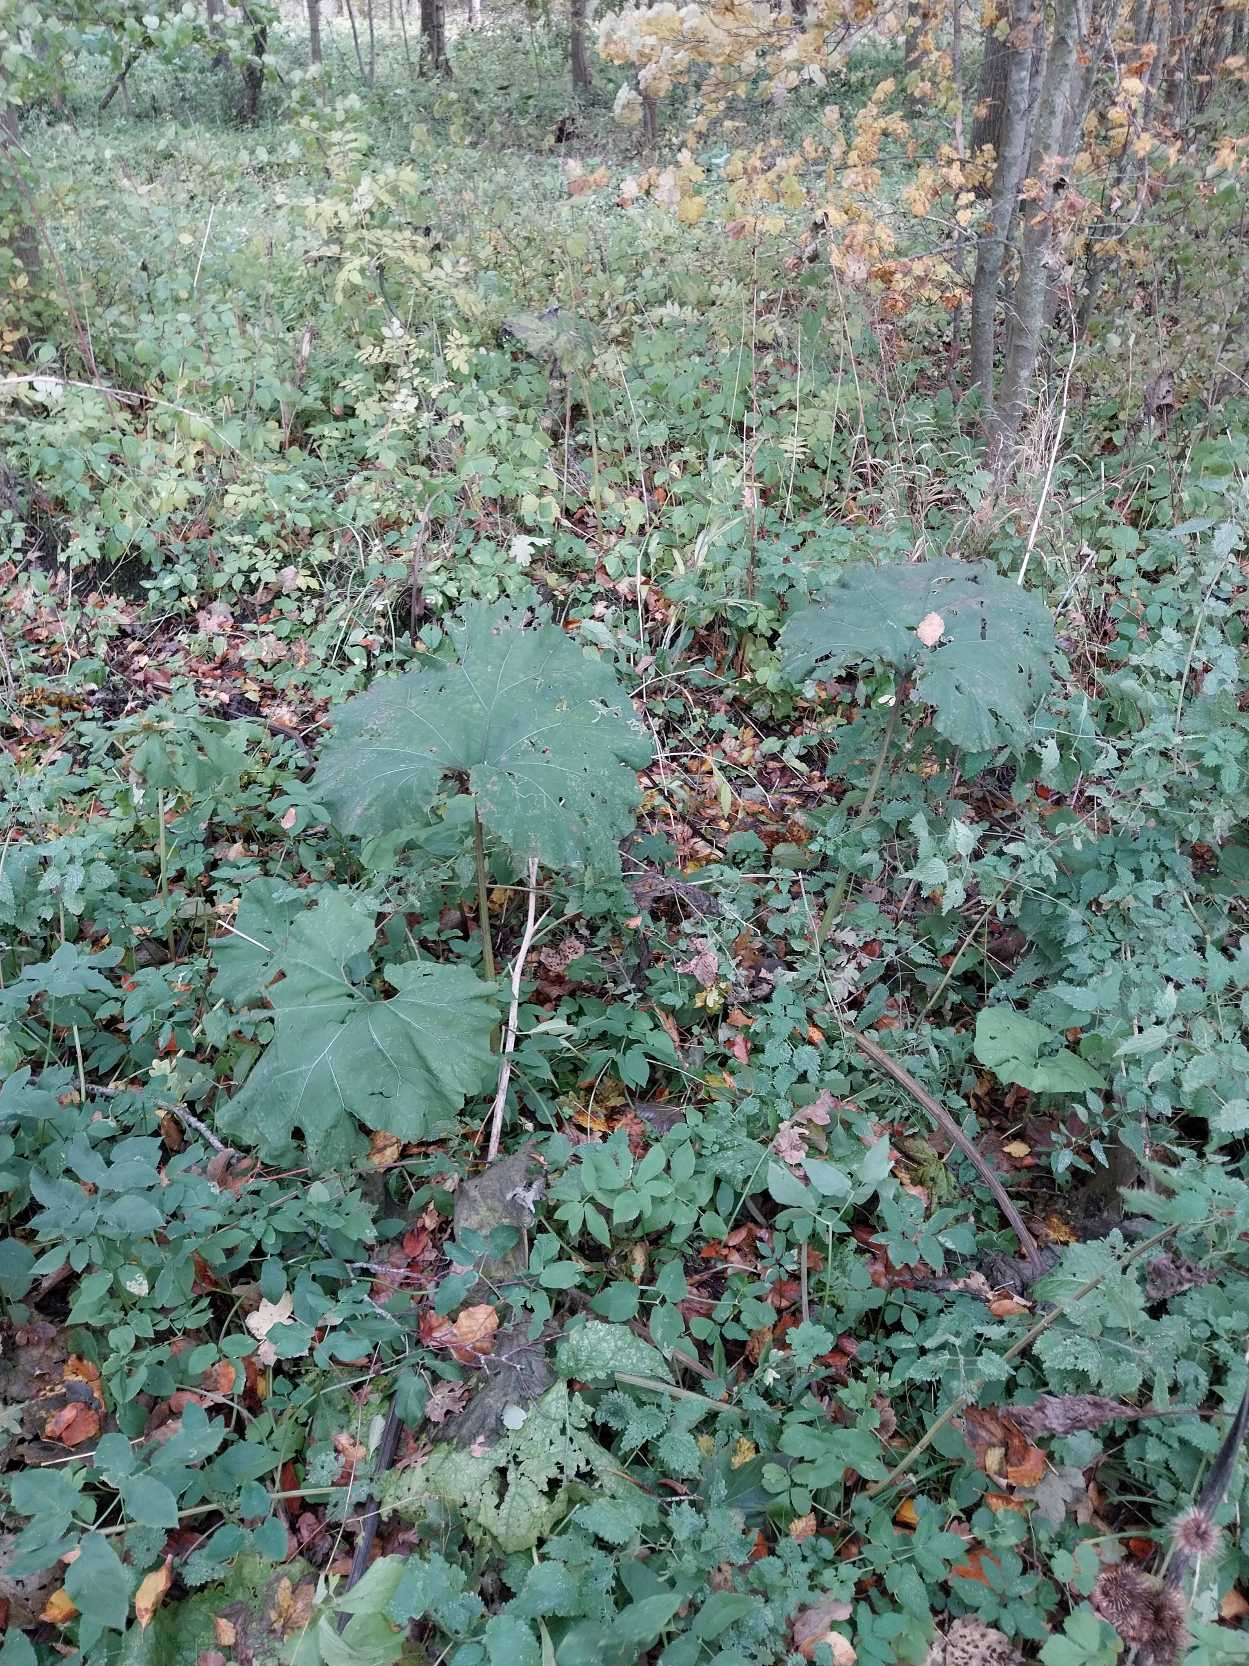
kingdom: Plantae
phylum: Tracheophyta
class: Magnoliopsida
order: Asterales
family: Asteraceae
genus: Petasites
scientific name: Petasites hybridus
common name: Rød hestehov
